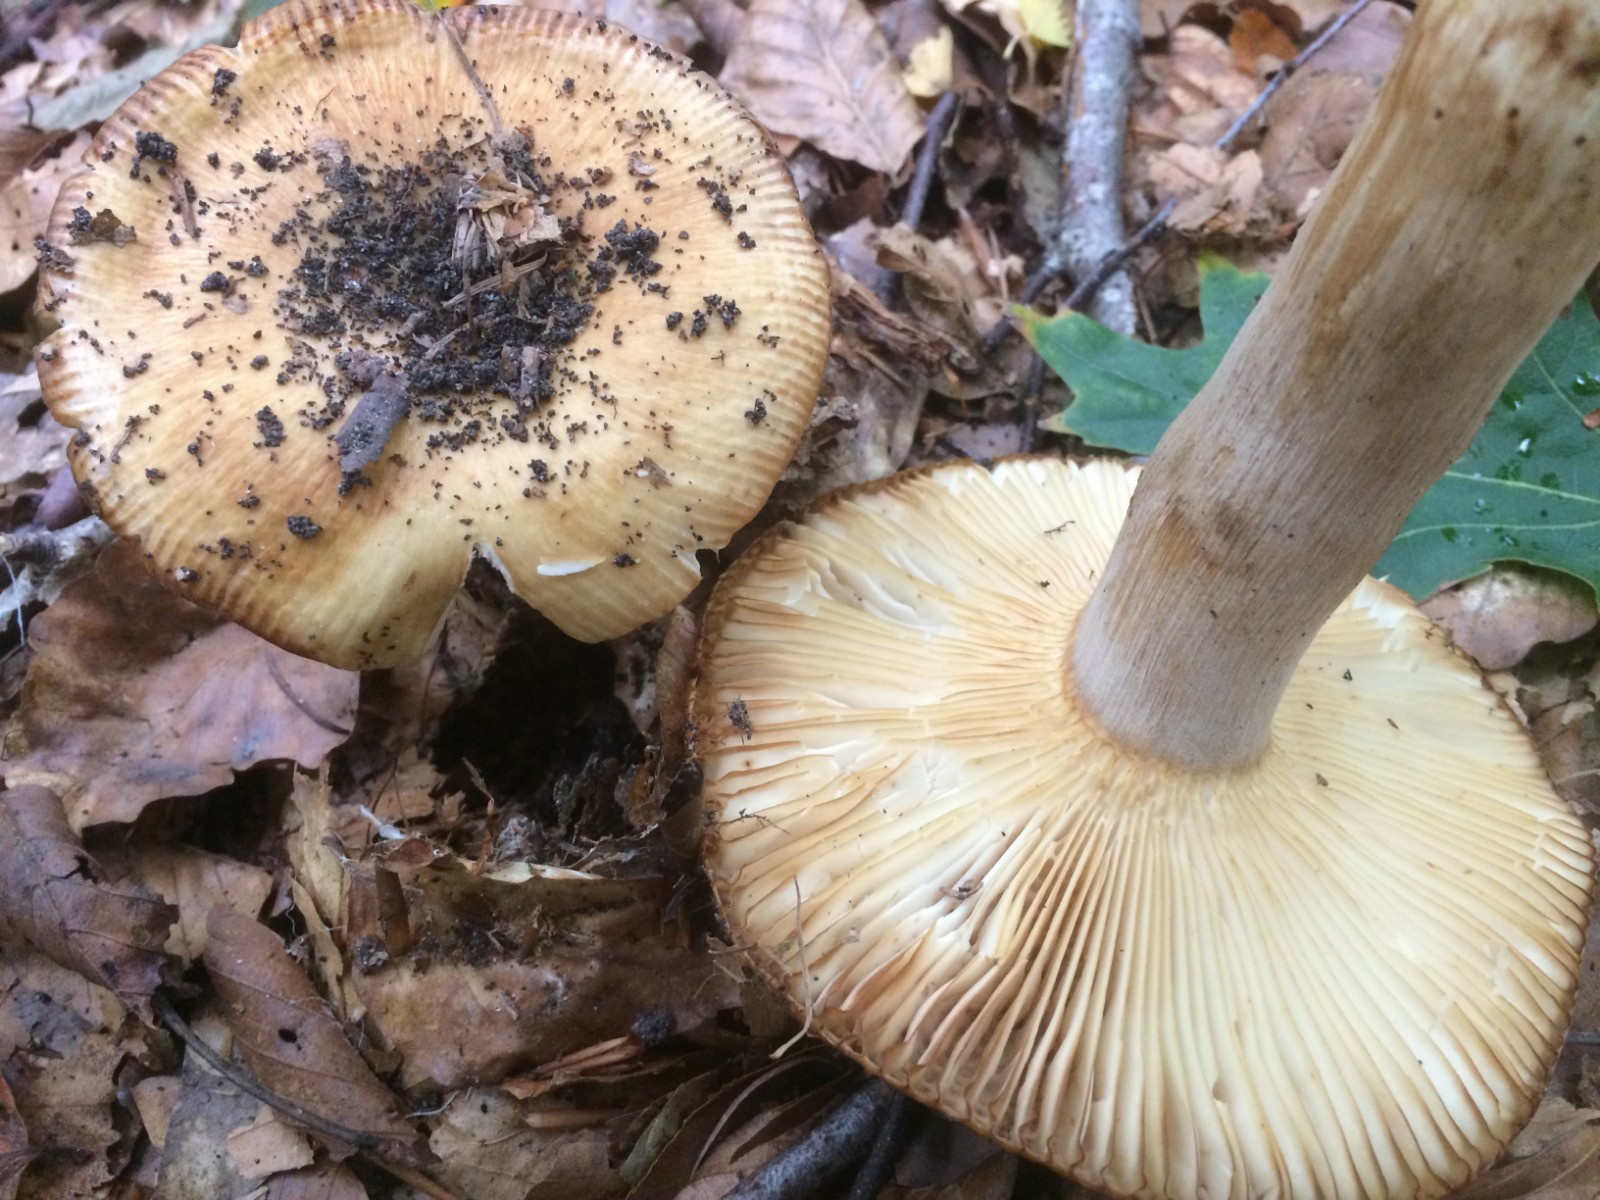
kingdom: Fungi
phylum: Basidiomycota
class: Agaricomycetes
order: Russulales
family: Russulaceae
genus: Russula
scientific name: Russula grata
